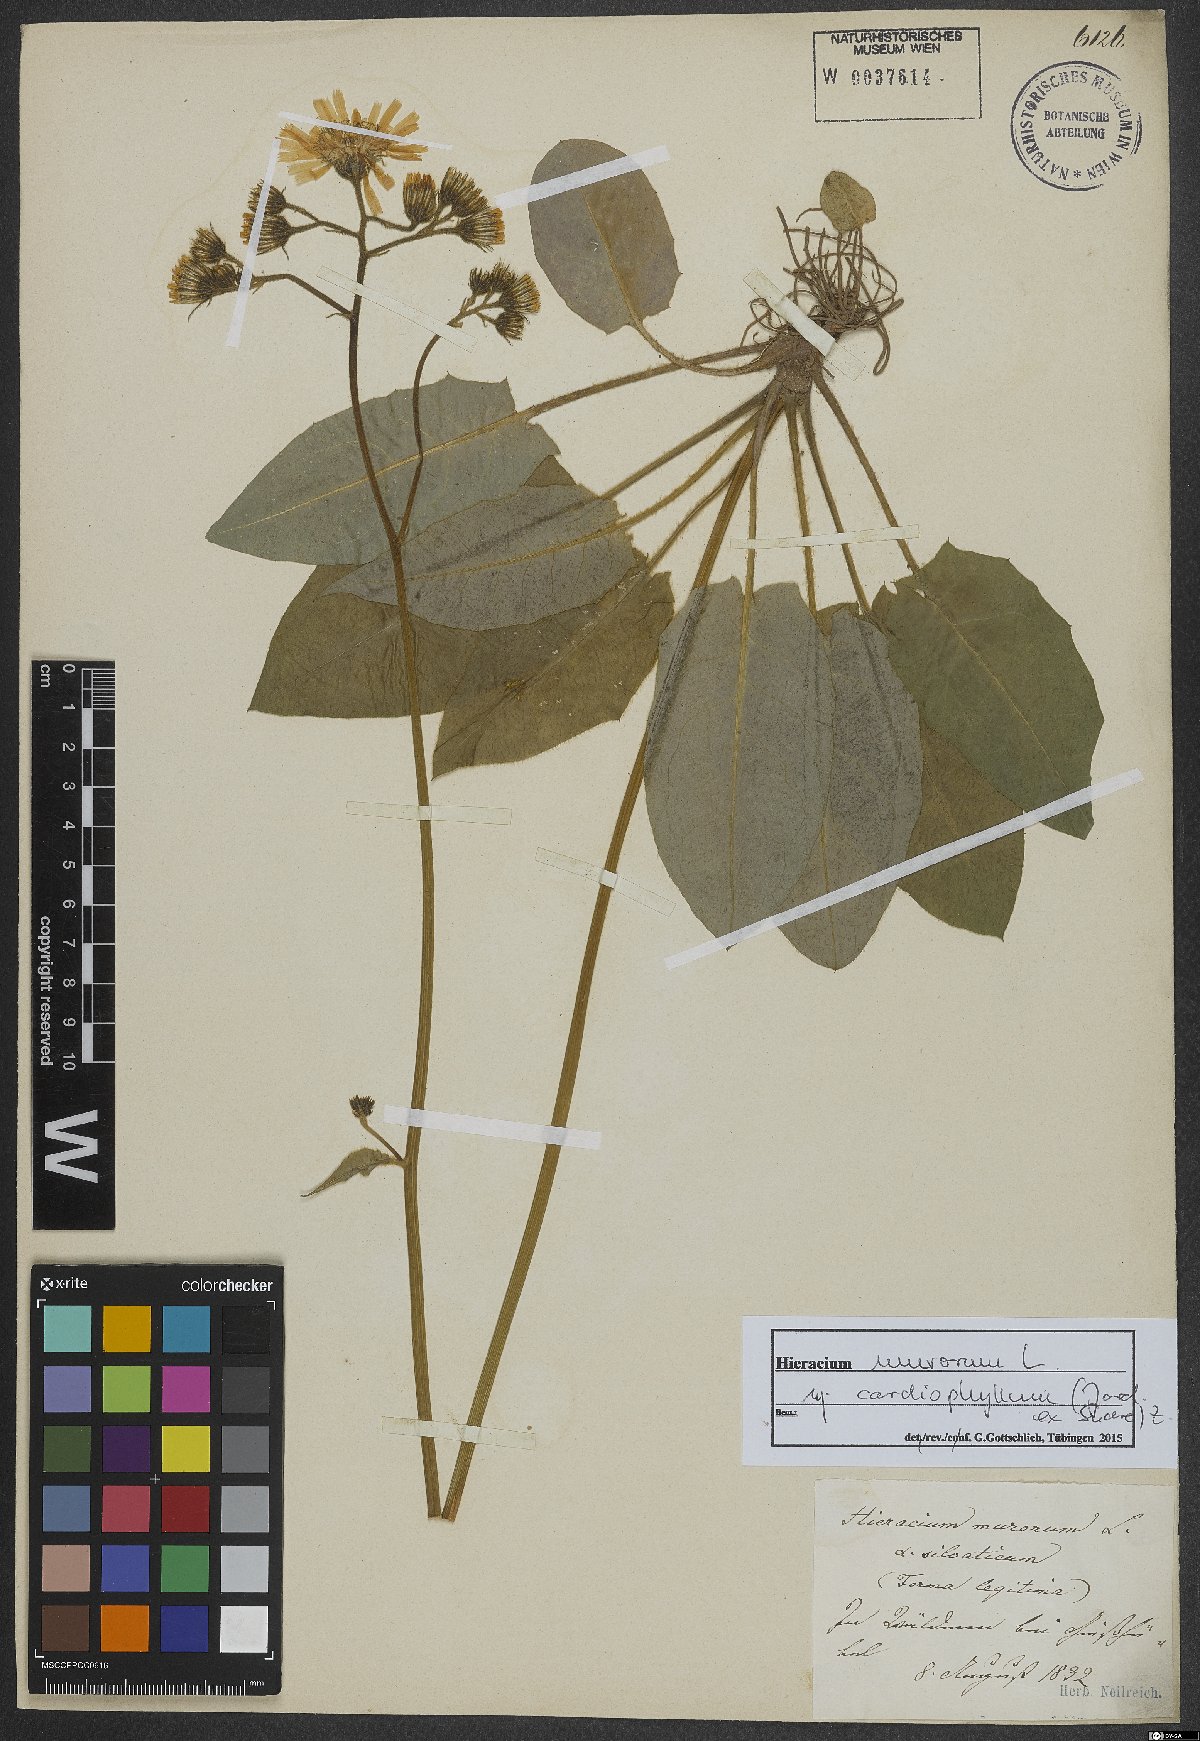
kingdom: Plantae
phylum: Tracheophyta
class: Magnoliopsida
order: Asterales
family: Asteraceae
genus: Hieracium
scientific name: Hieracium murorum
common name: Wall hawkweed
